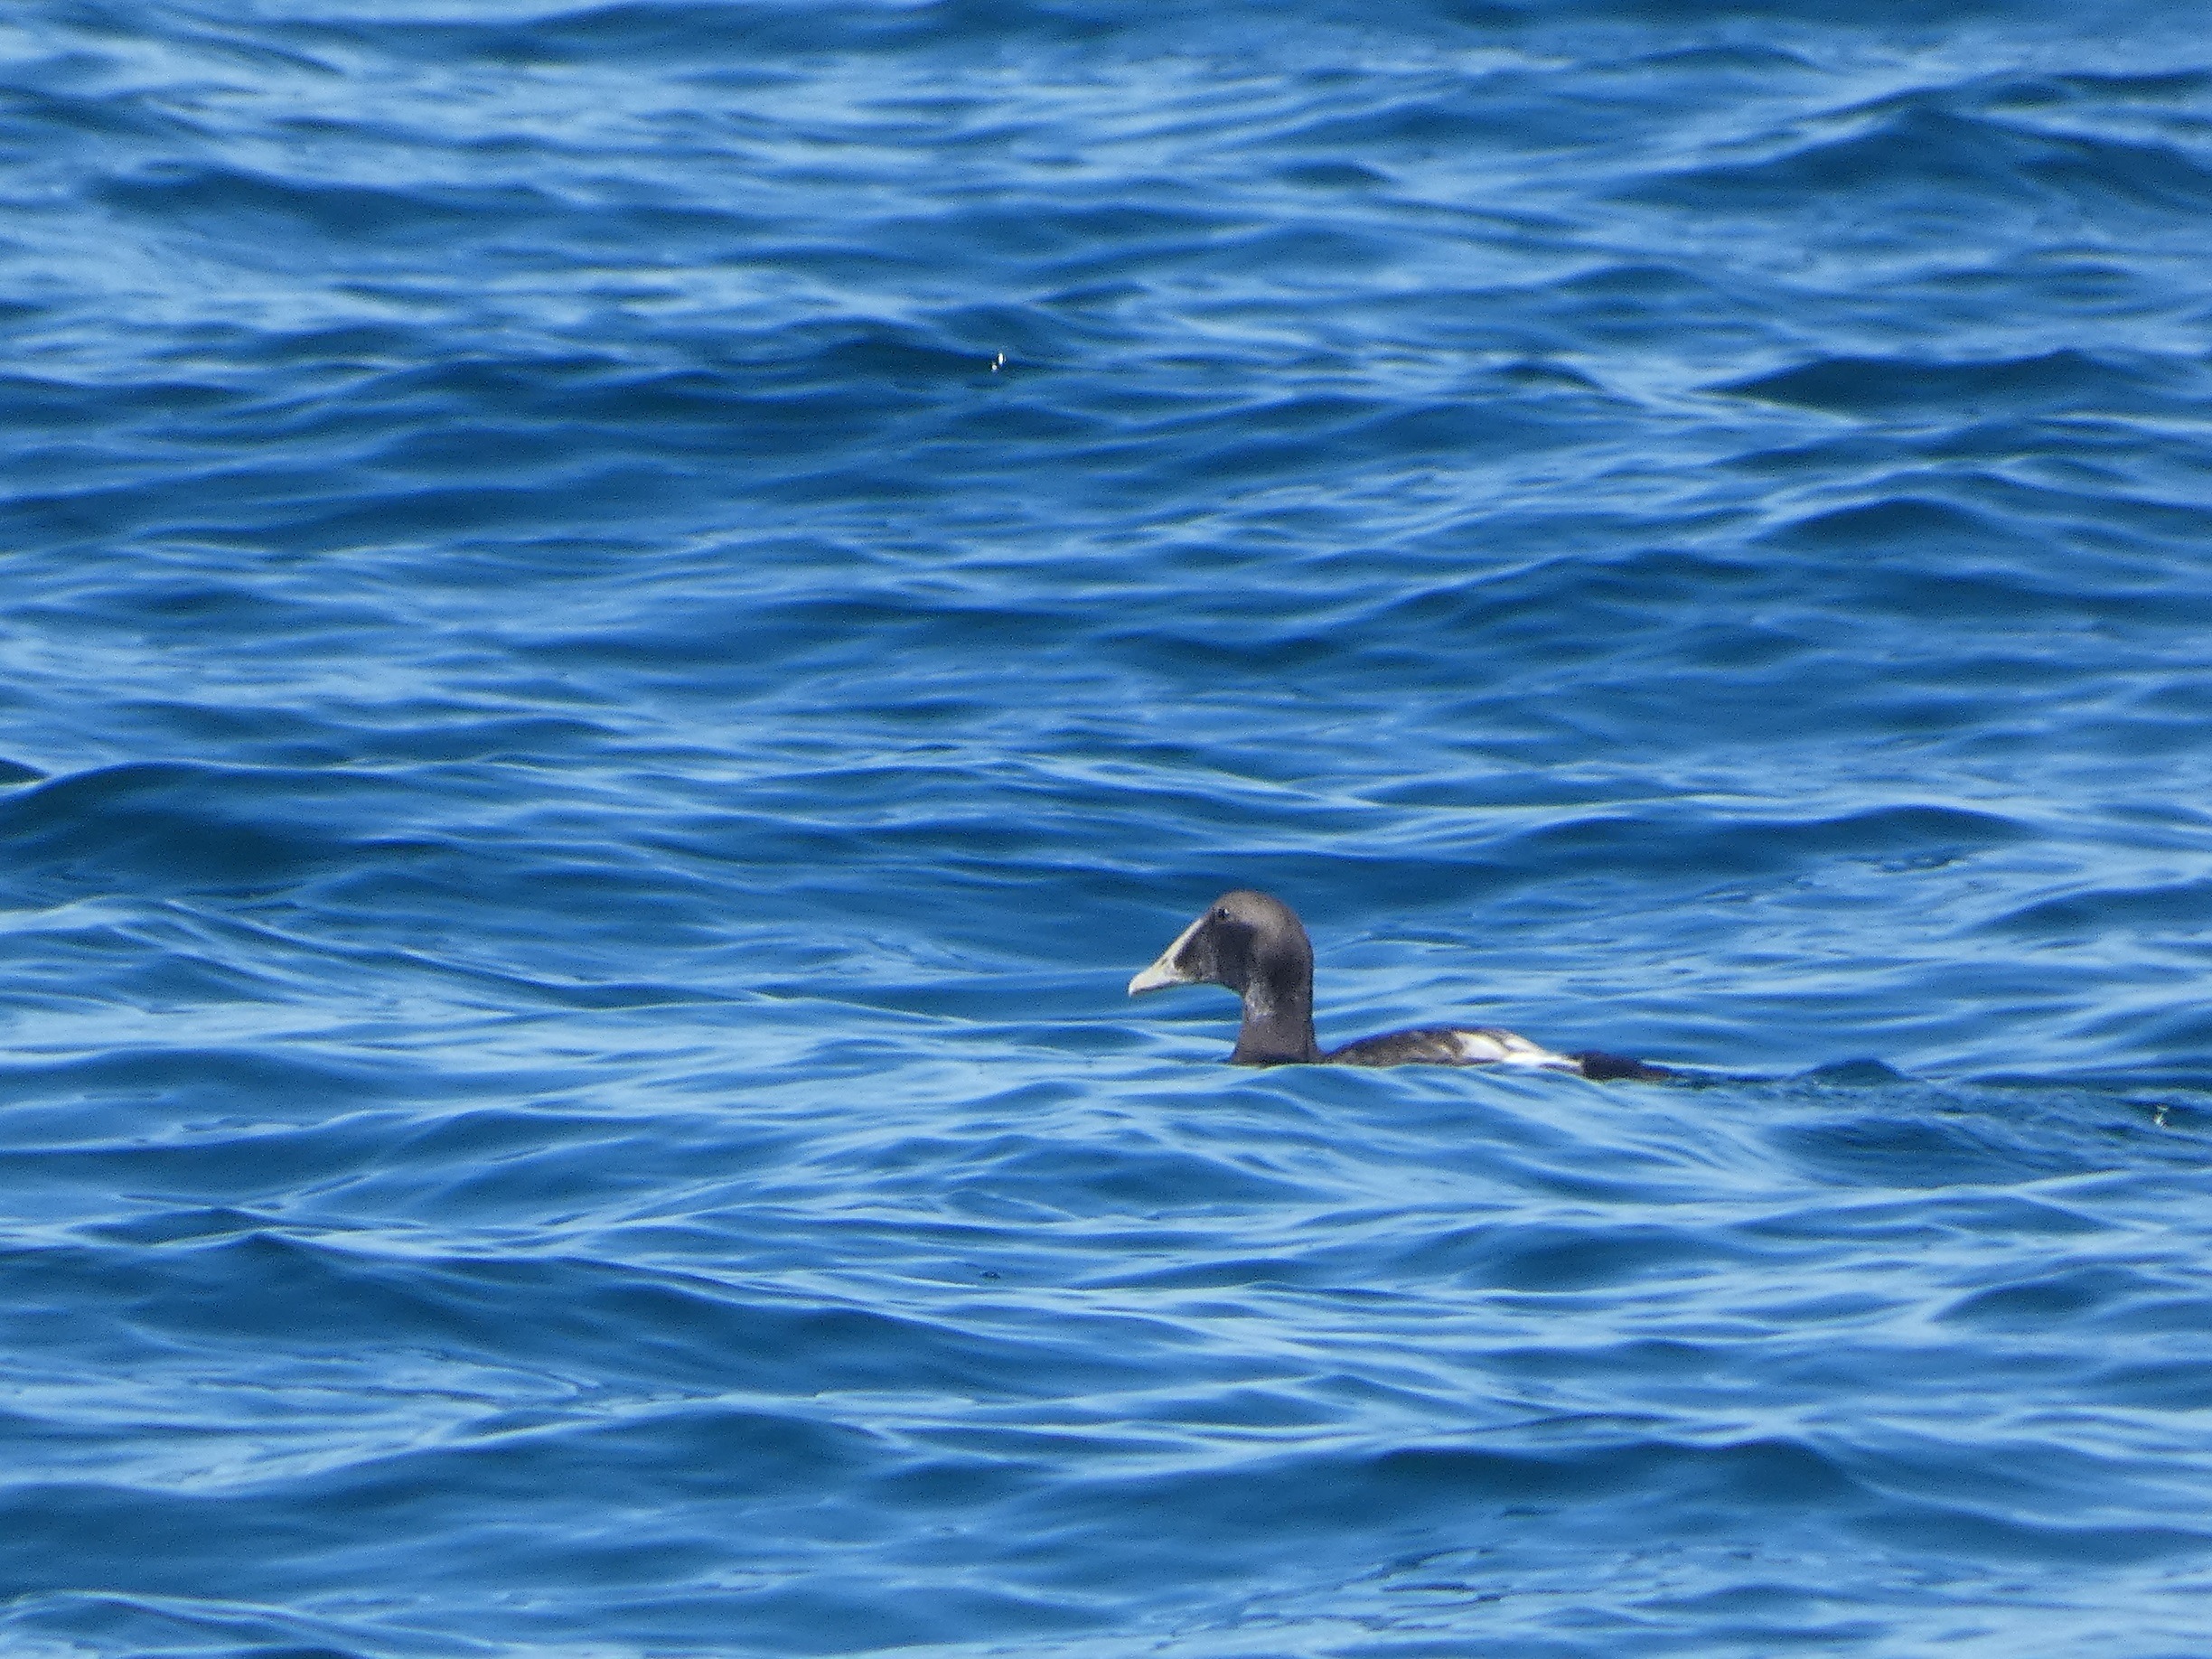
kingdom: Animalia
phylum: Chordata
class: Aves
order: Anseriformes
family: Anatidae
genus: Somateria
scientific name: Somateria mollissima
